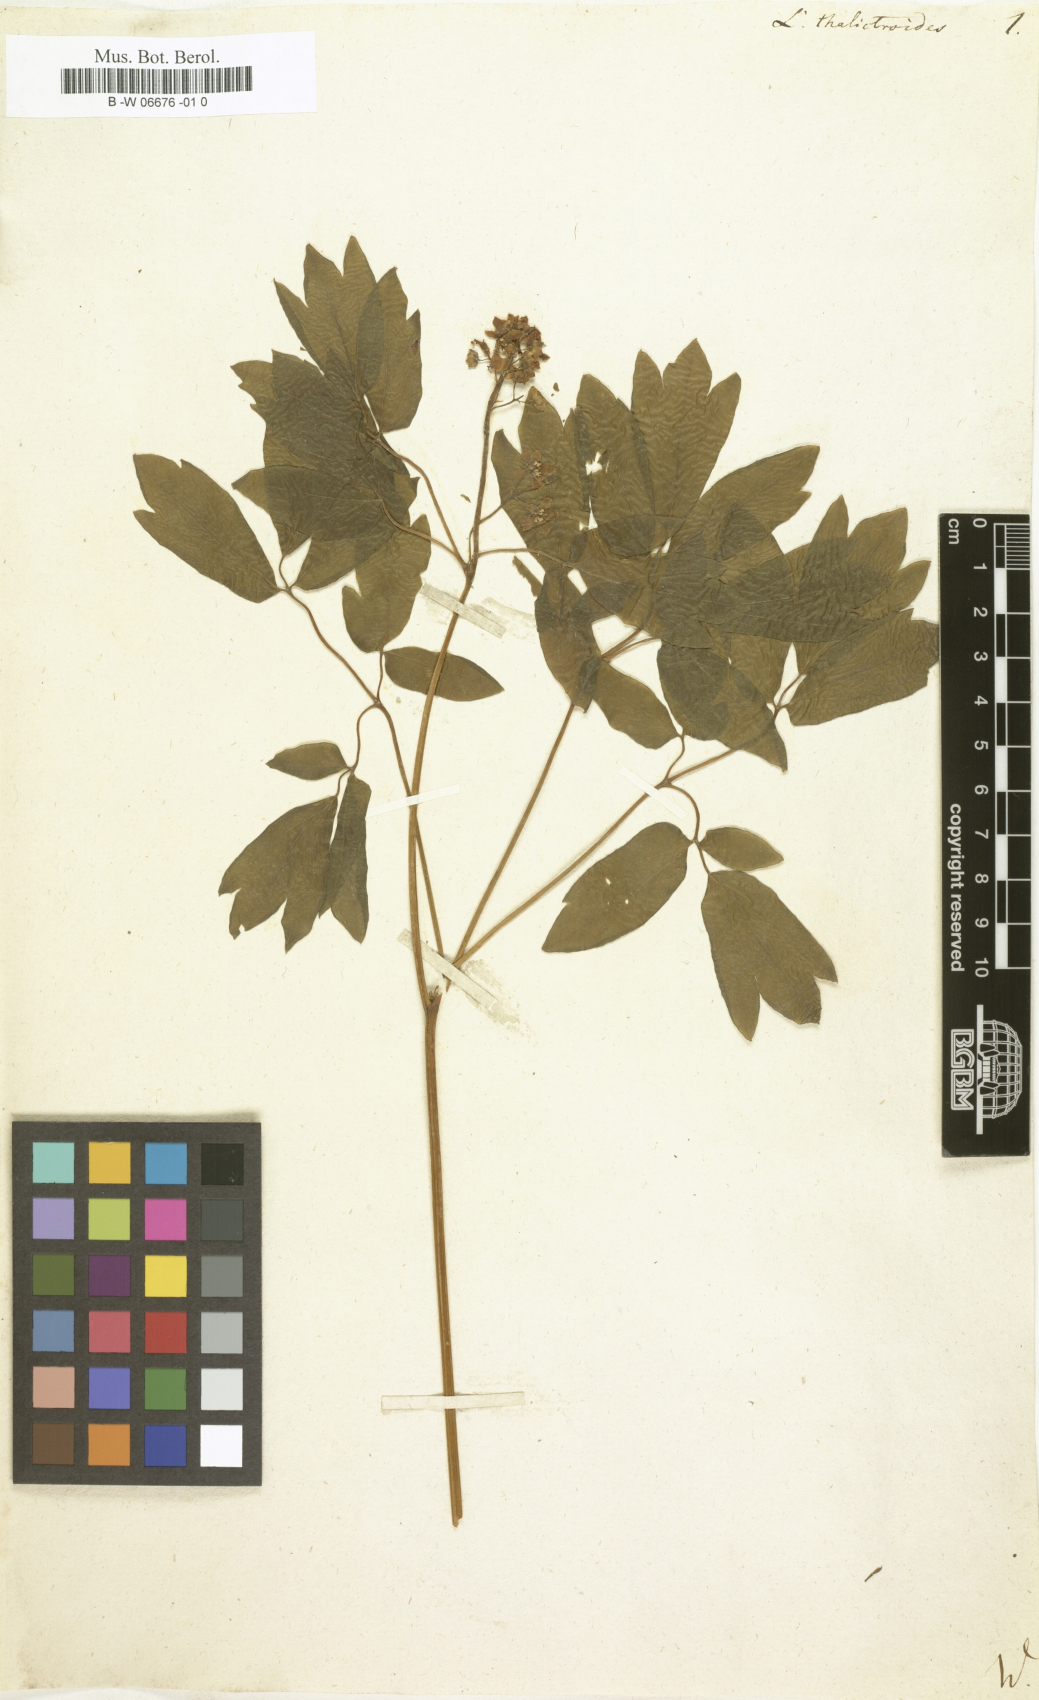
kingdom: Plantae
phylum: Tracheophyta
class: Magnoliopsida
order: Ranunculales
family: Berberidaceae
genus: Caulophyllum
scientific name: Caulophyllum thalictroides
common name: Blue cohosh
